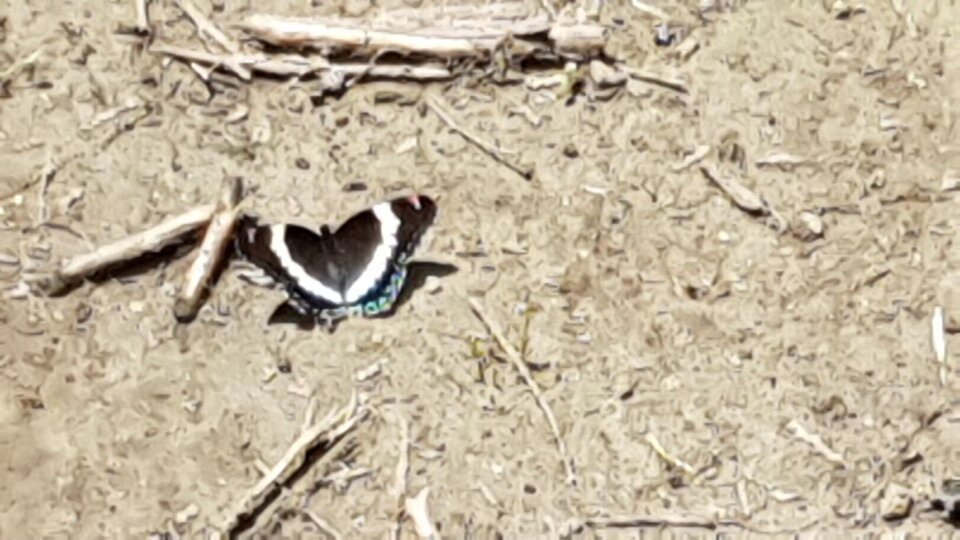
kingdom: Animalia
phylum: Arthropoda
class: Insecta
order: Lepidoptera
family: Nymphalidae
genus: Limenitis
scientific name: Limenitis arthemis
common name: Red-spotted Admiral
